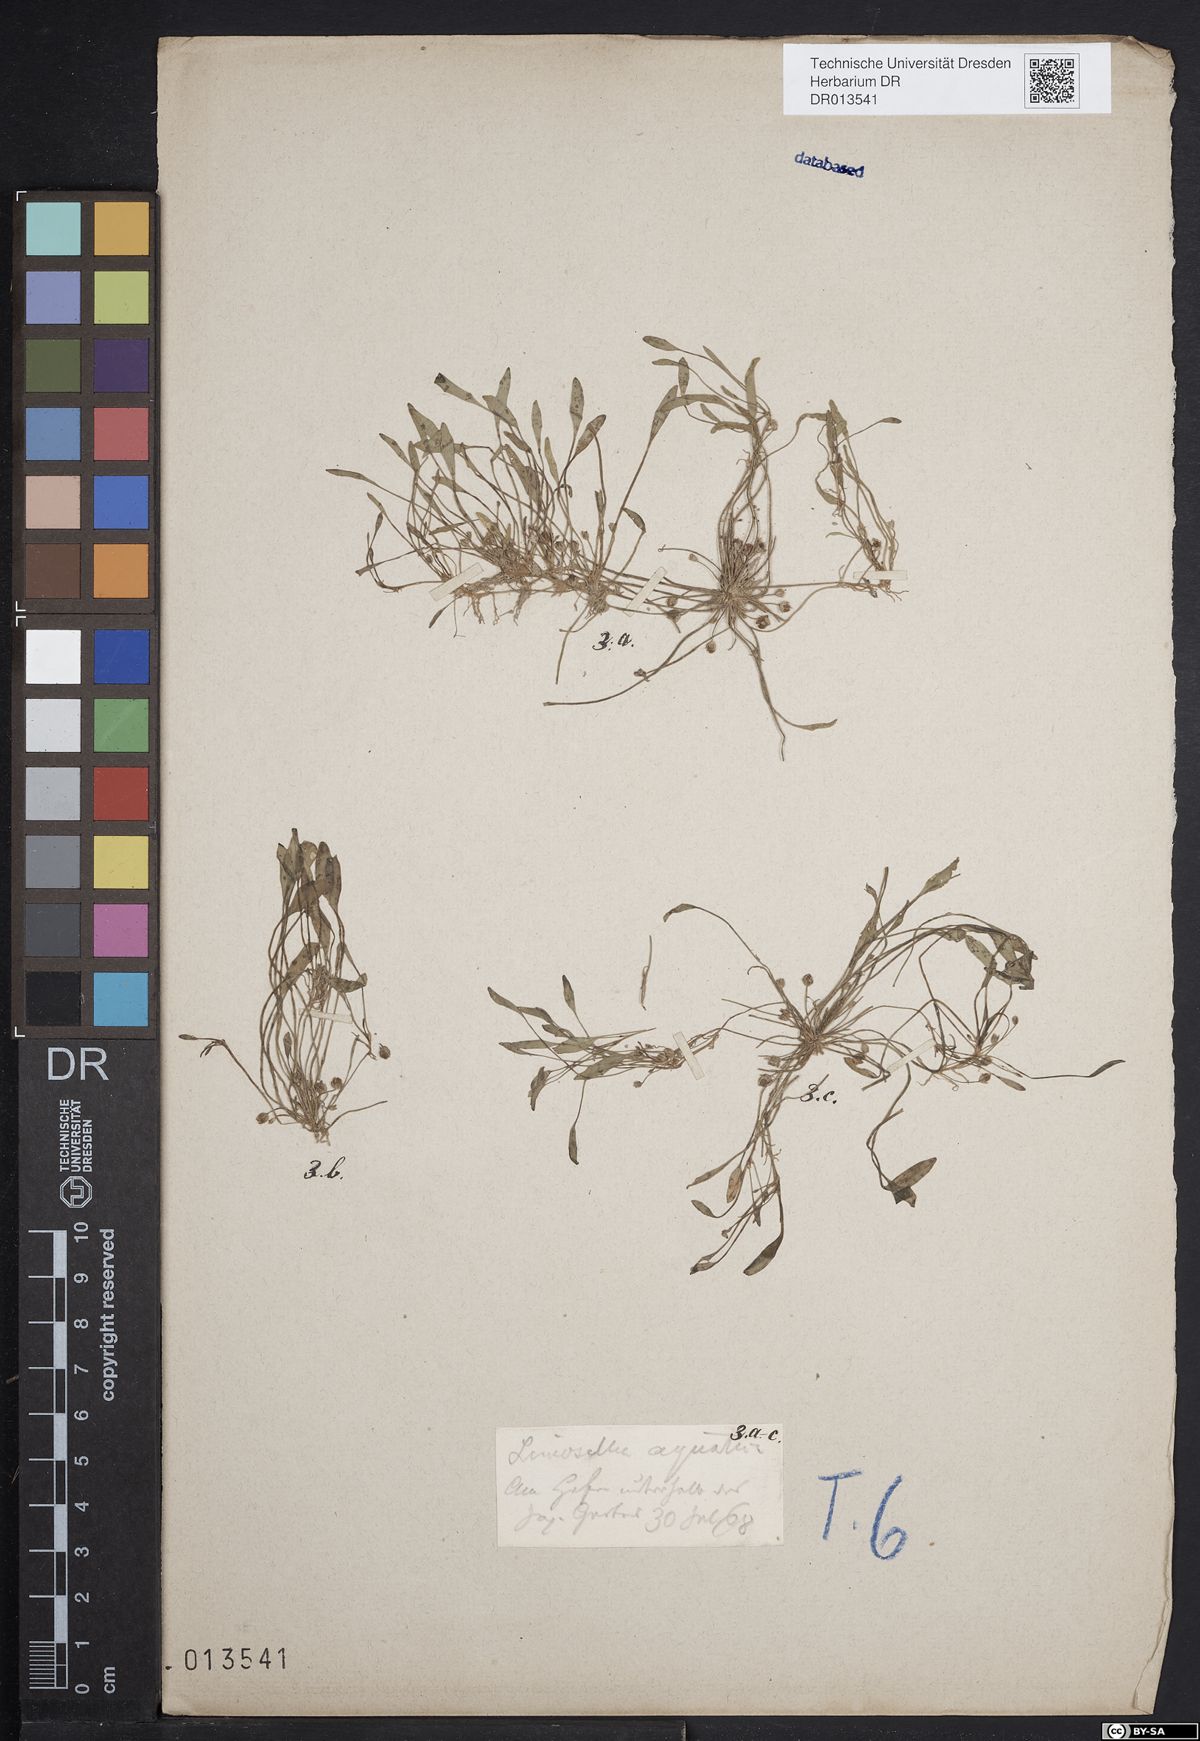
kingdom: Plantae
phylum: Tracheophyta
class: Magnoliopsida
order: Lamiales
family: Scrophulariaceae
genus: Limosella
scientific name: Limosella aquatica
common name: Mudwort
